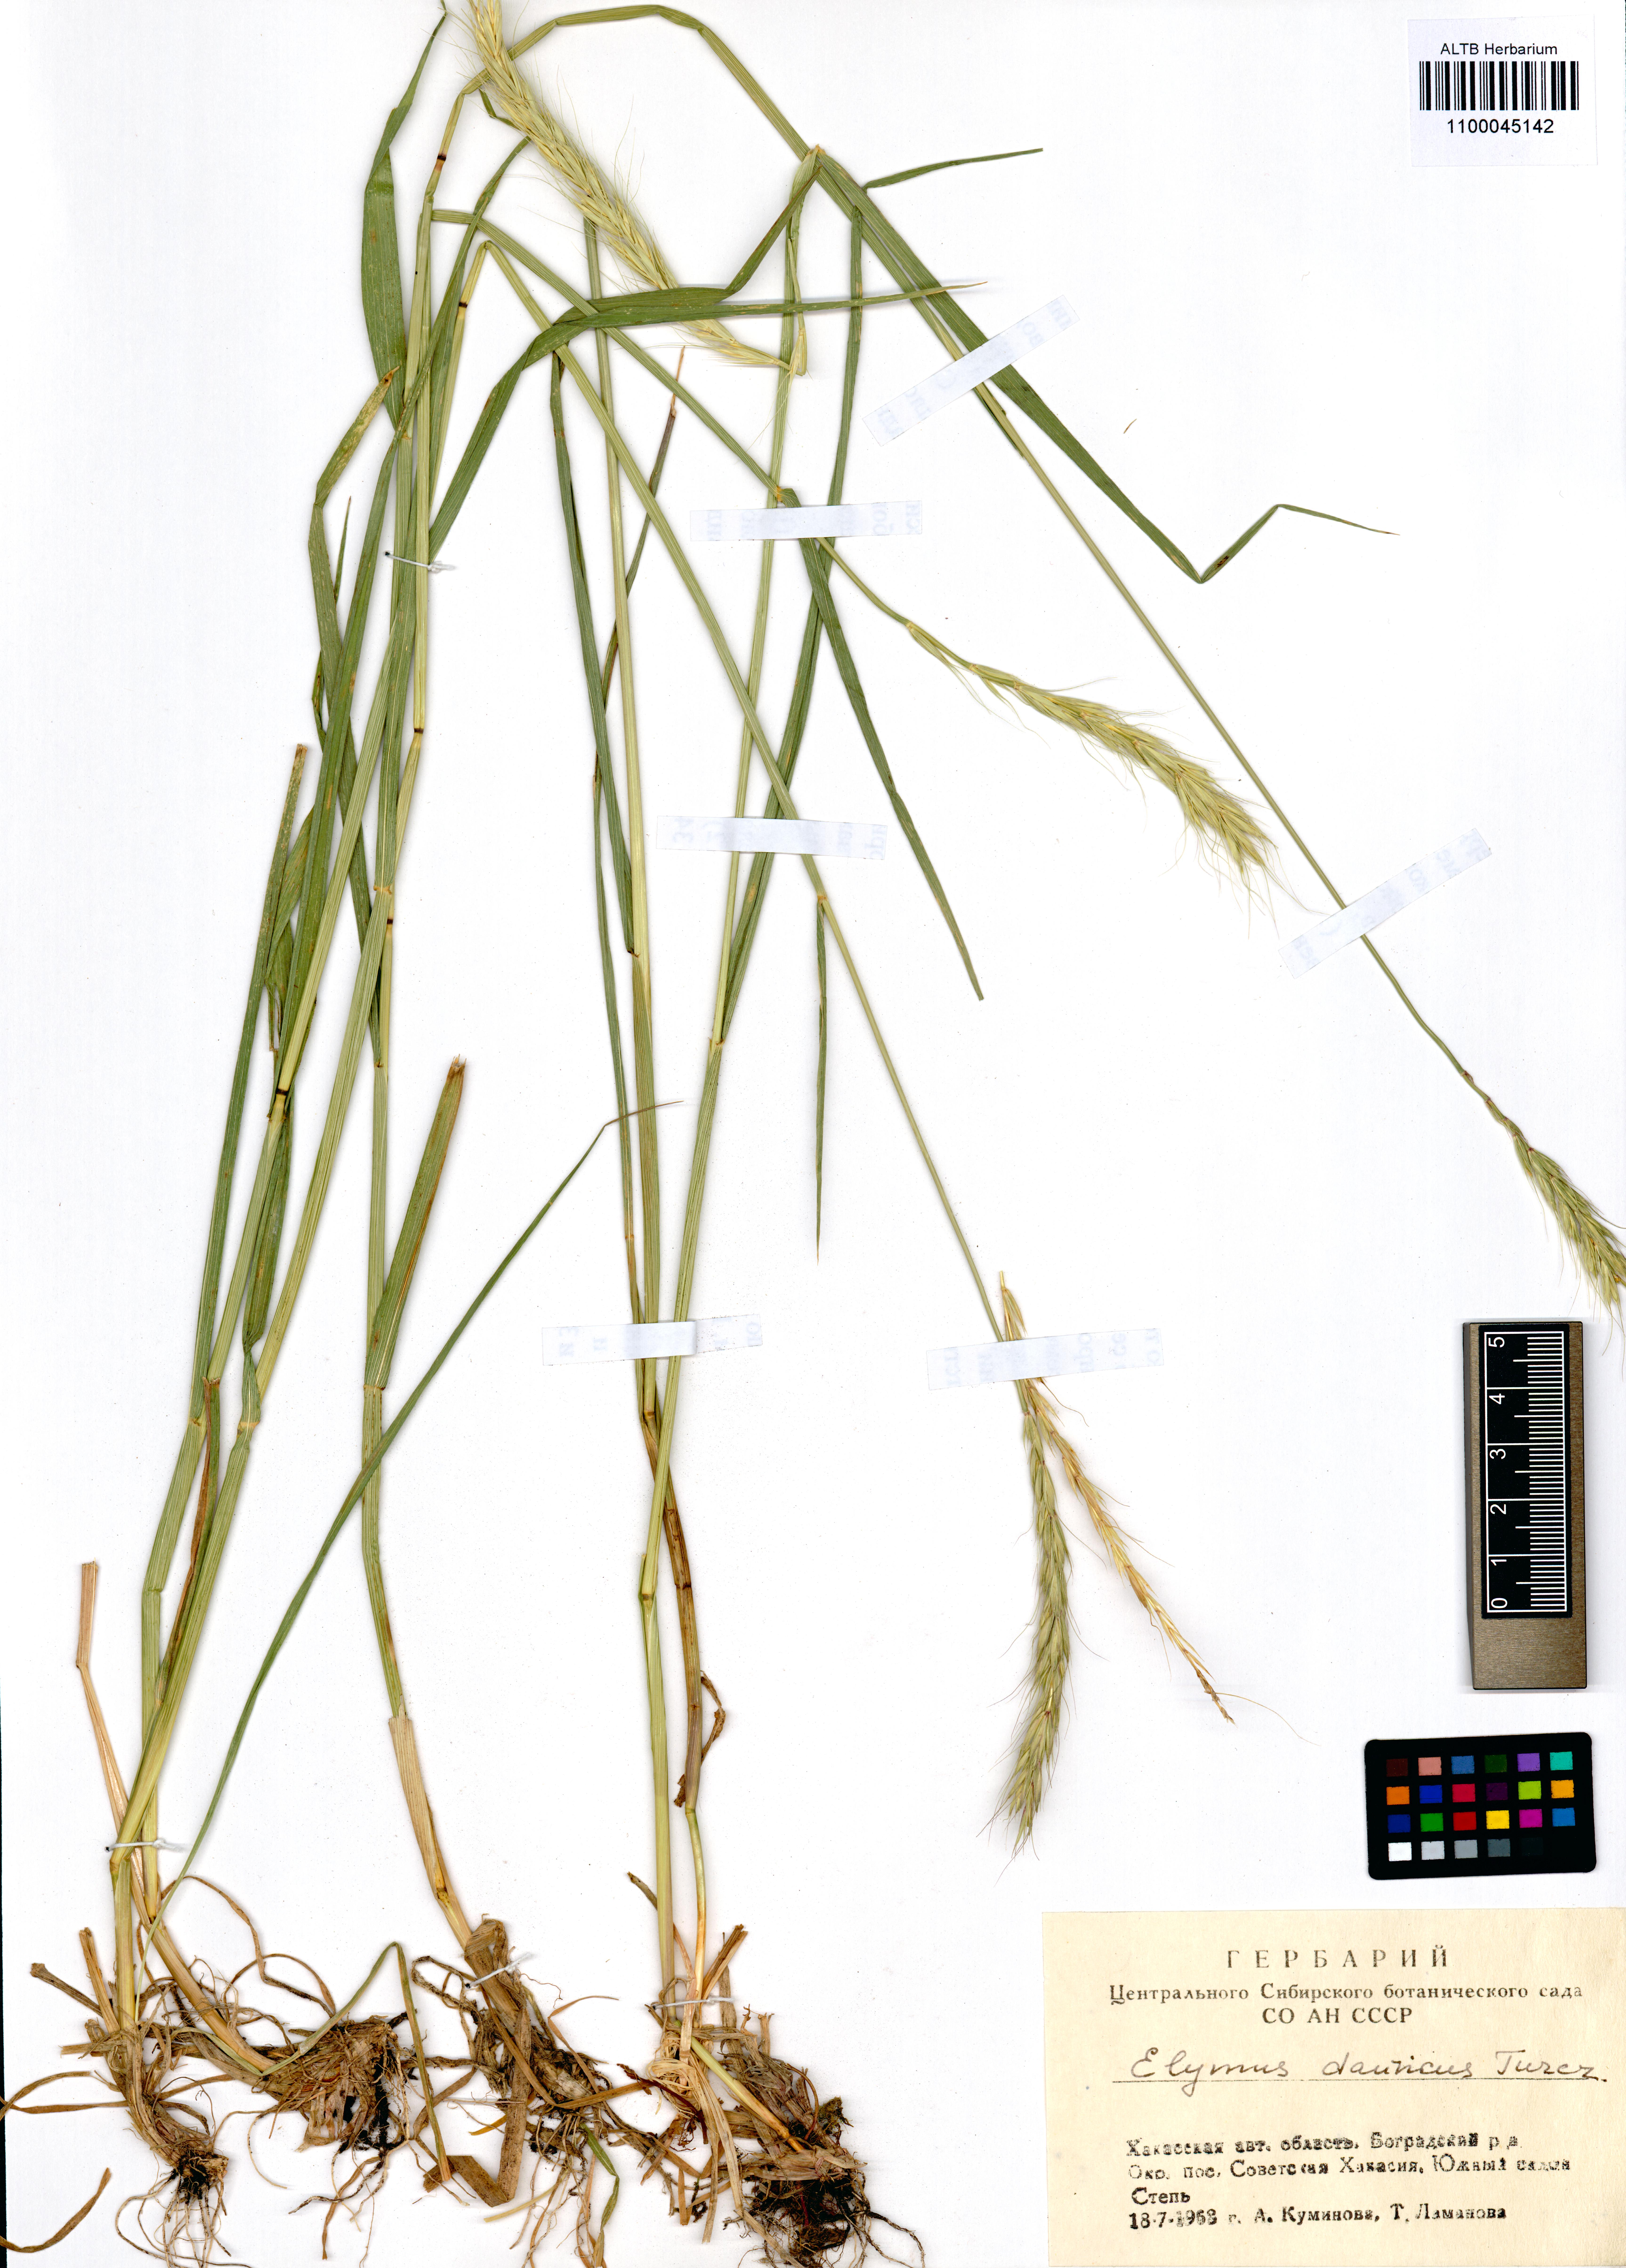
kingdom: Plantae
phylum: Tracheophyta
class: Liliopsida
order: Poales
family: Poaceae
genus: Elymus
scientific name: Elymus dahuricus
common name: Dahurian wild rye
